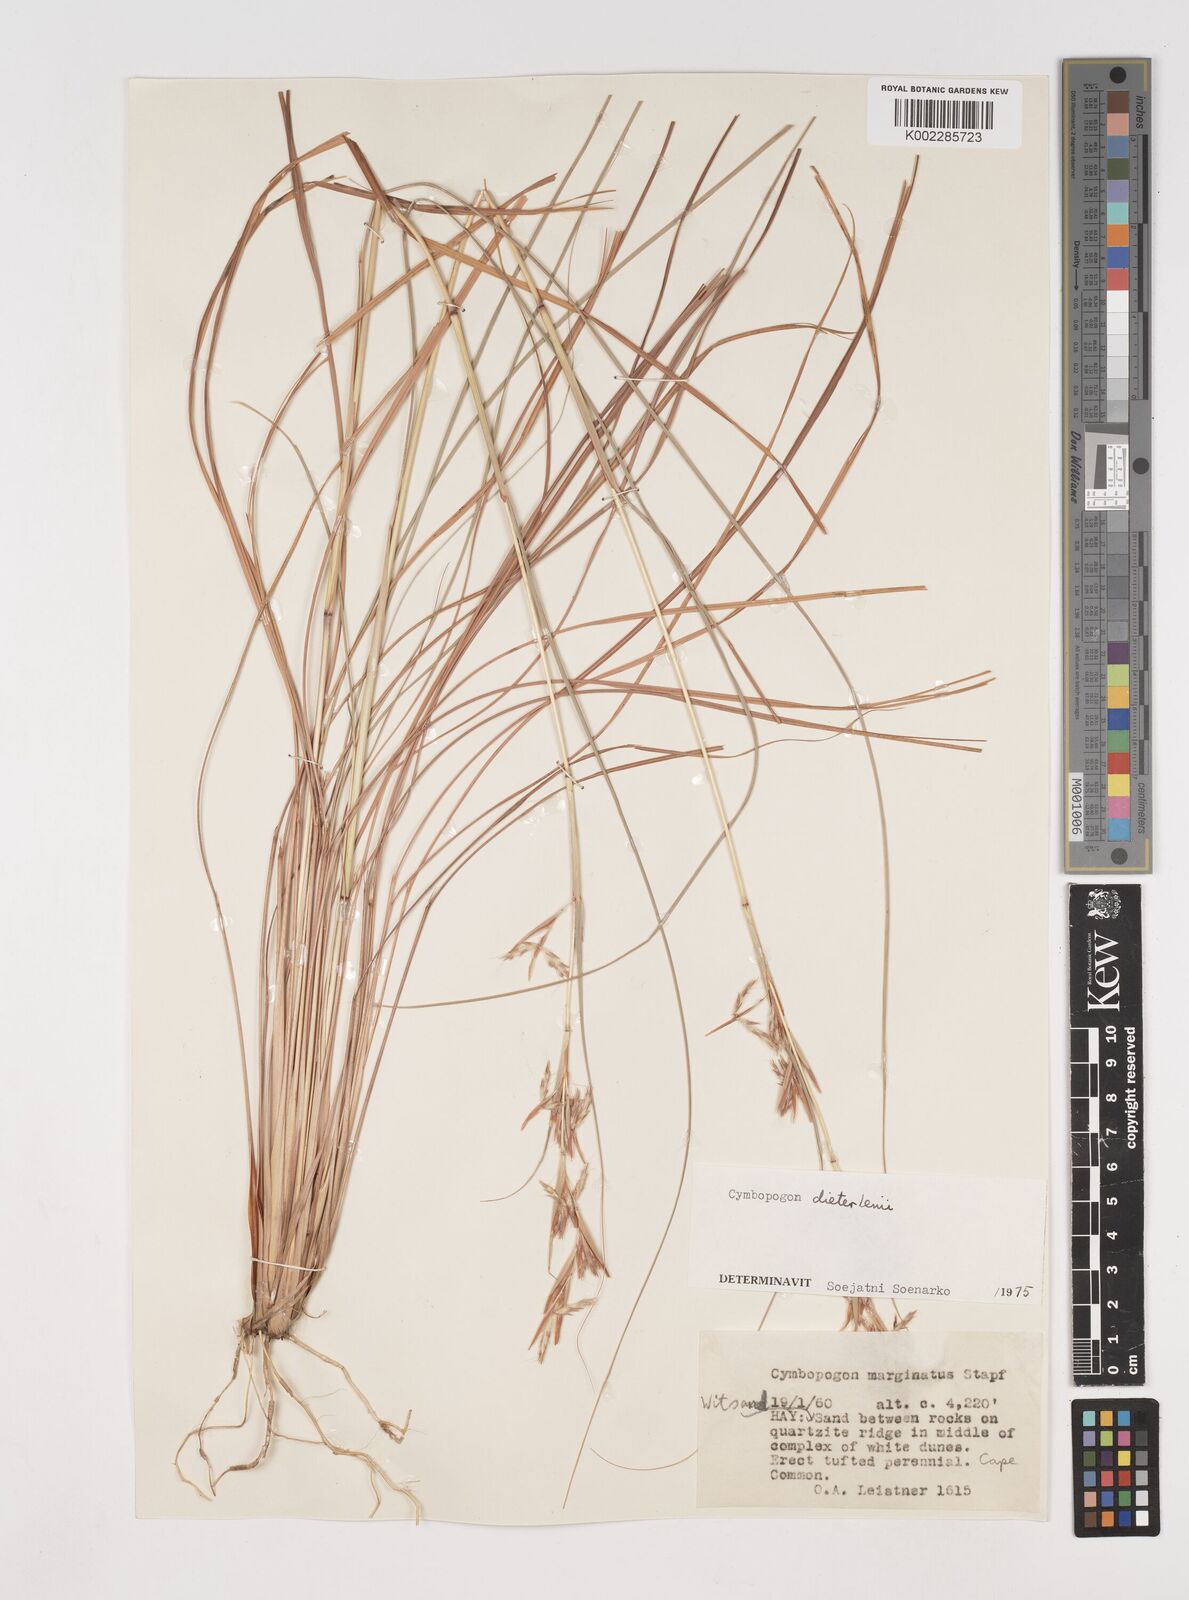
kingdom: Plantae
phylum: Tracheophyta
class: Liliopsida
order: Poales
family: Poaceae
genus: Cymbopogon
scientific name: Cymbopogon dieterlenii
